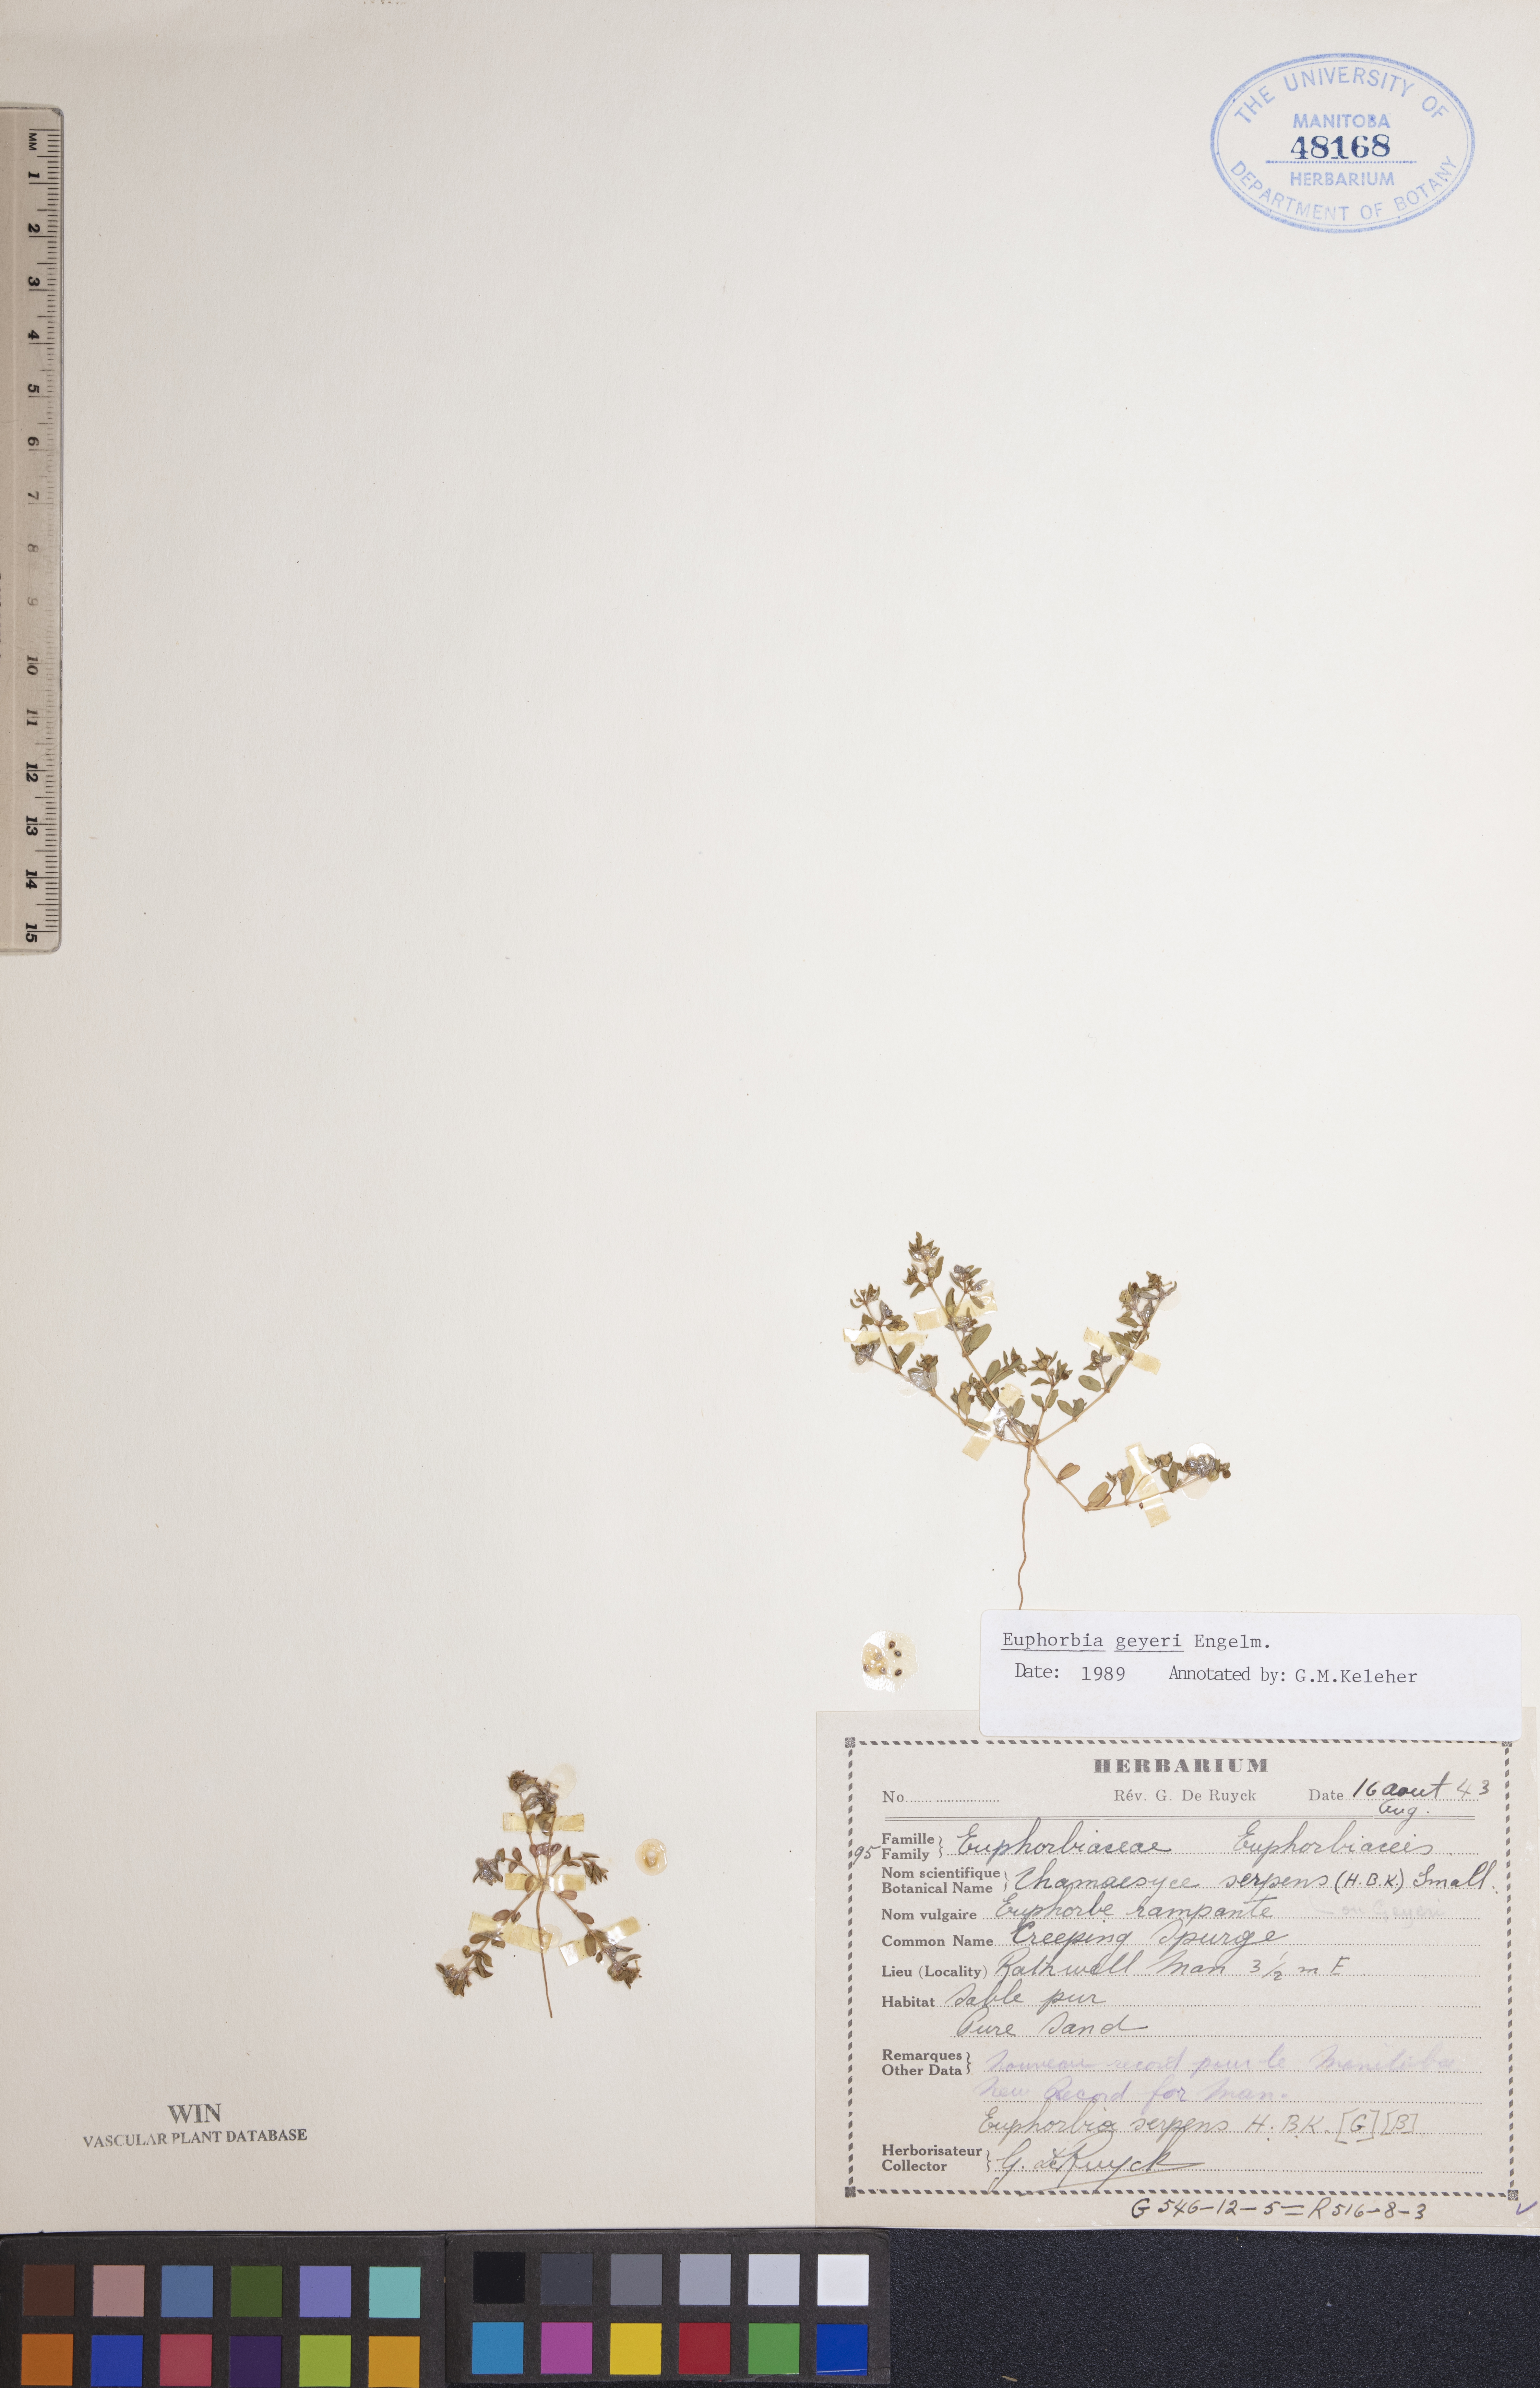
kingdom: Plantae
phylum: Tracheophyta
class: Magnoliopsida
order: Malpighiales
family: Euphorbiaceae
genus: Euphorbia
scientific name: Euphorbia geyeri
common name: Geyer's spurge
